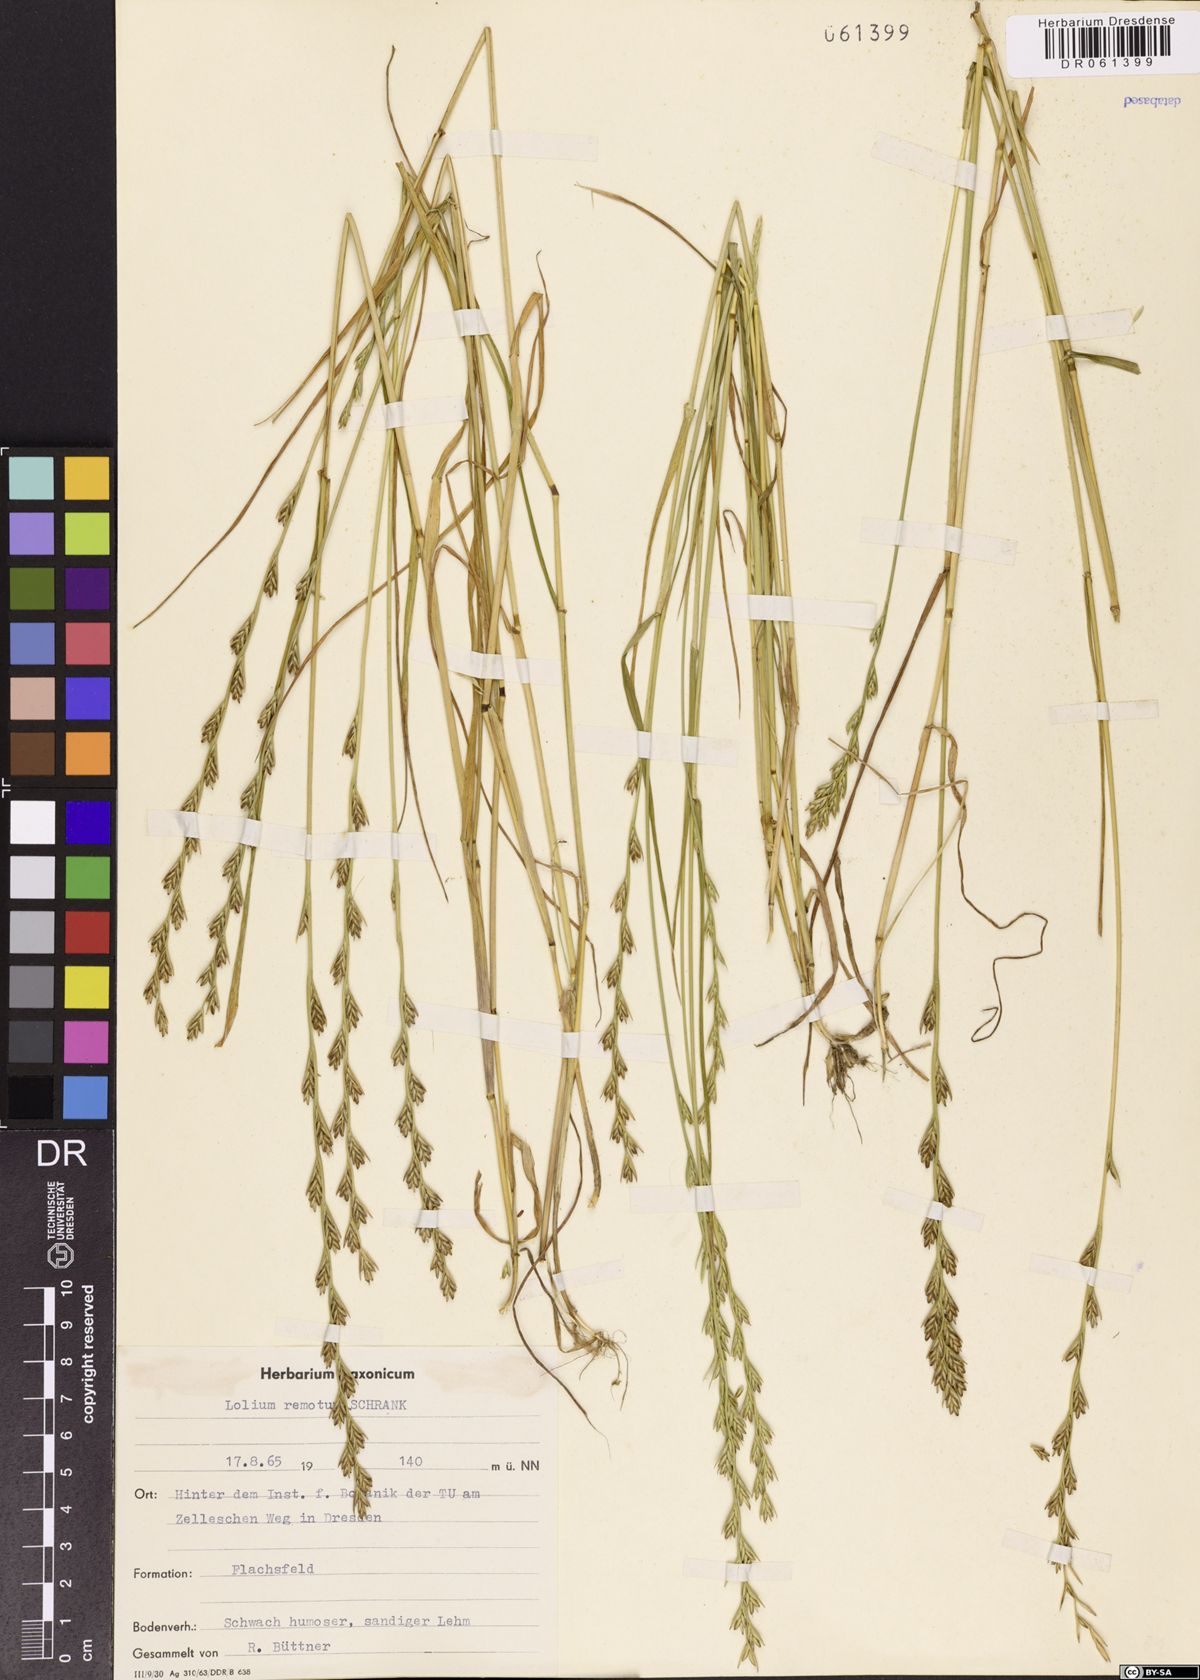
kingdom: Plantae
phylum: Tracheophyta
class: Liliopsida
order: Poales
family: Poaceae
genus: Lolium
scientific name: Lolium remotum
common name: Flaxfield rye-grass
